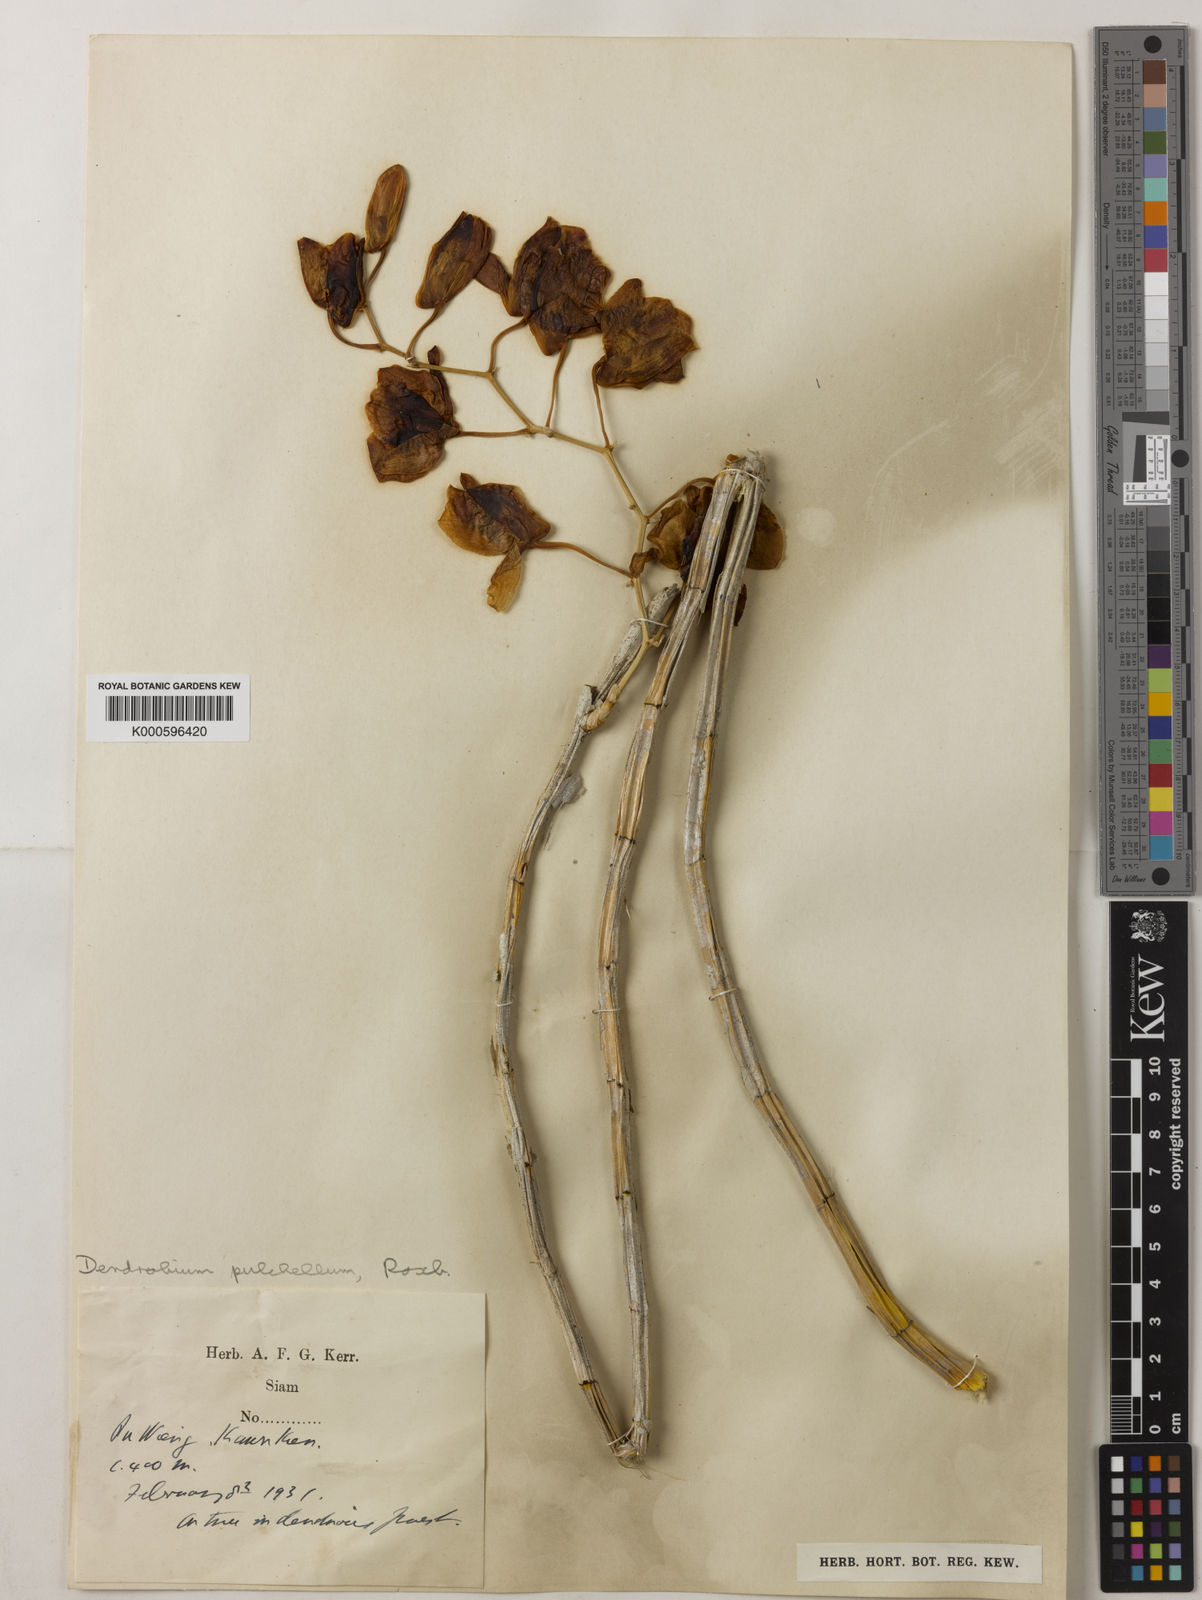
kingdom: Plantae
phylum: Tracheophyta
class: Liliopsida
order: Asparagales
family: Orchidaceae
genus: Dendrobium
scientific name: Dendrobium
